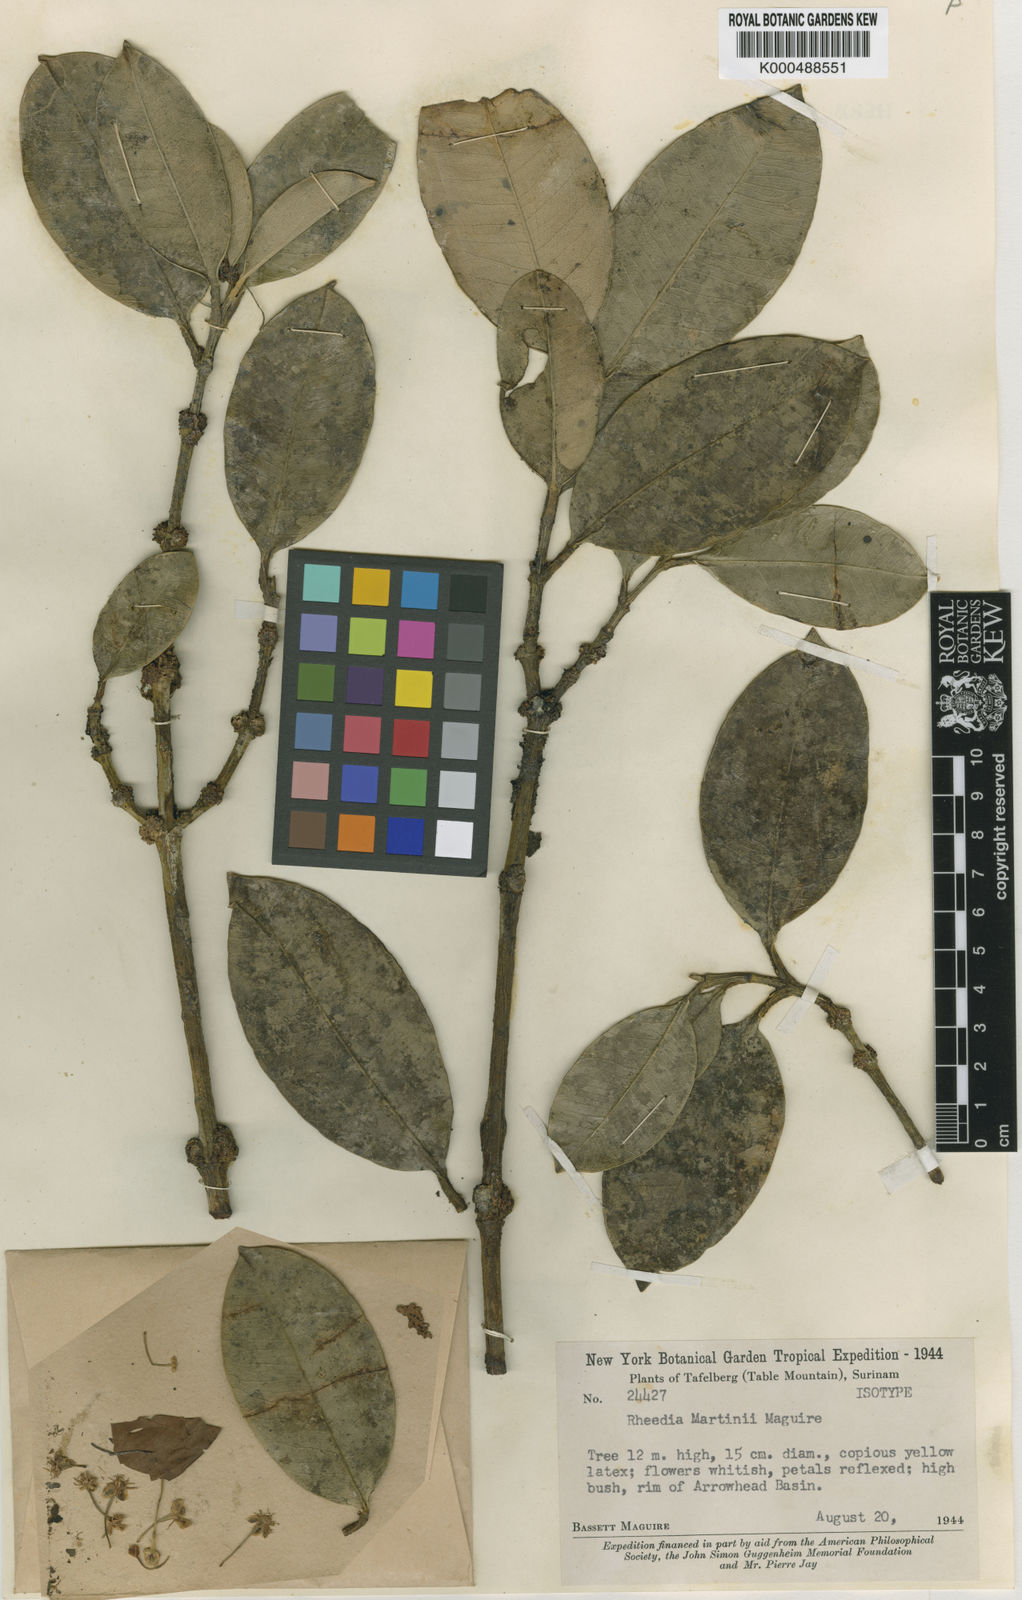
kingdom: Plantae
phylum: Tracheophyta
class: Magnoliopsida
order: Malpighiales
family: Clusiaceae
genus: Garcinia
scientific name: Garcinia
